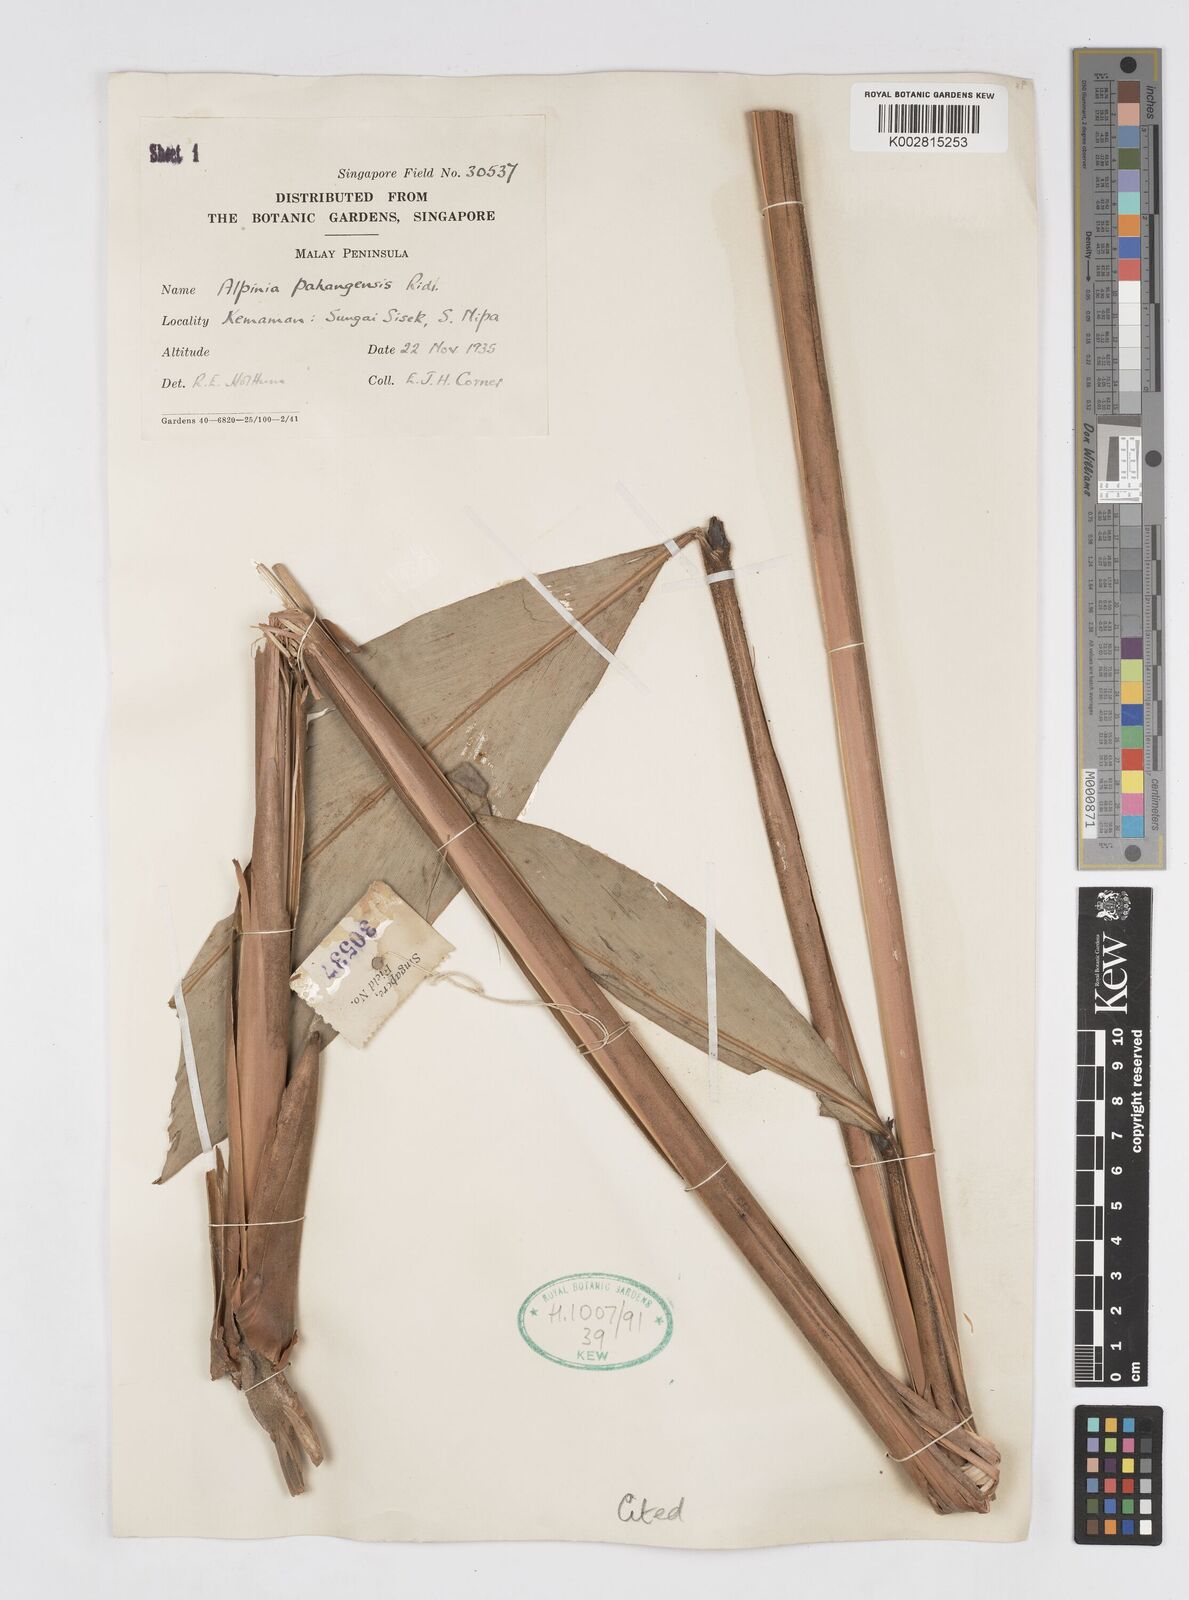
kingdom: Plantae
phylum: Tracheophyta
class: Liliopsida
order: Zingiberales
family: Zingiberaceae
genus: Alpinia
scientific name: Alpinia pahangensis
